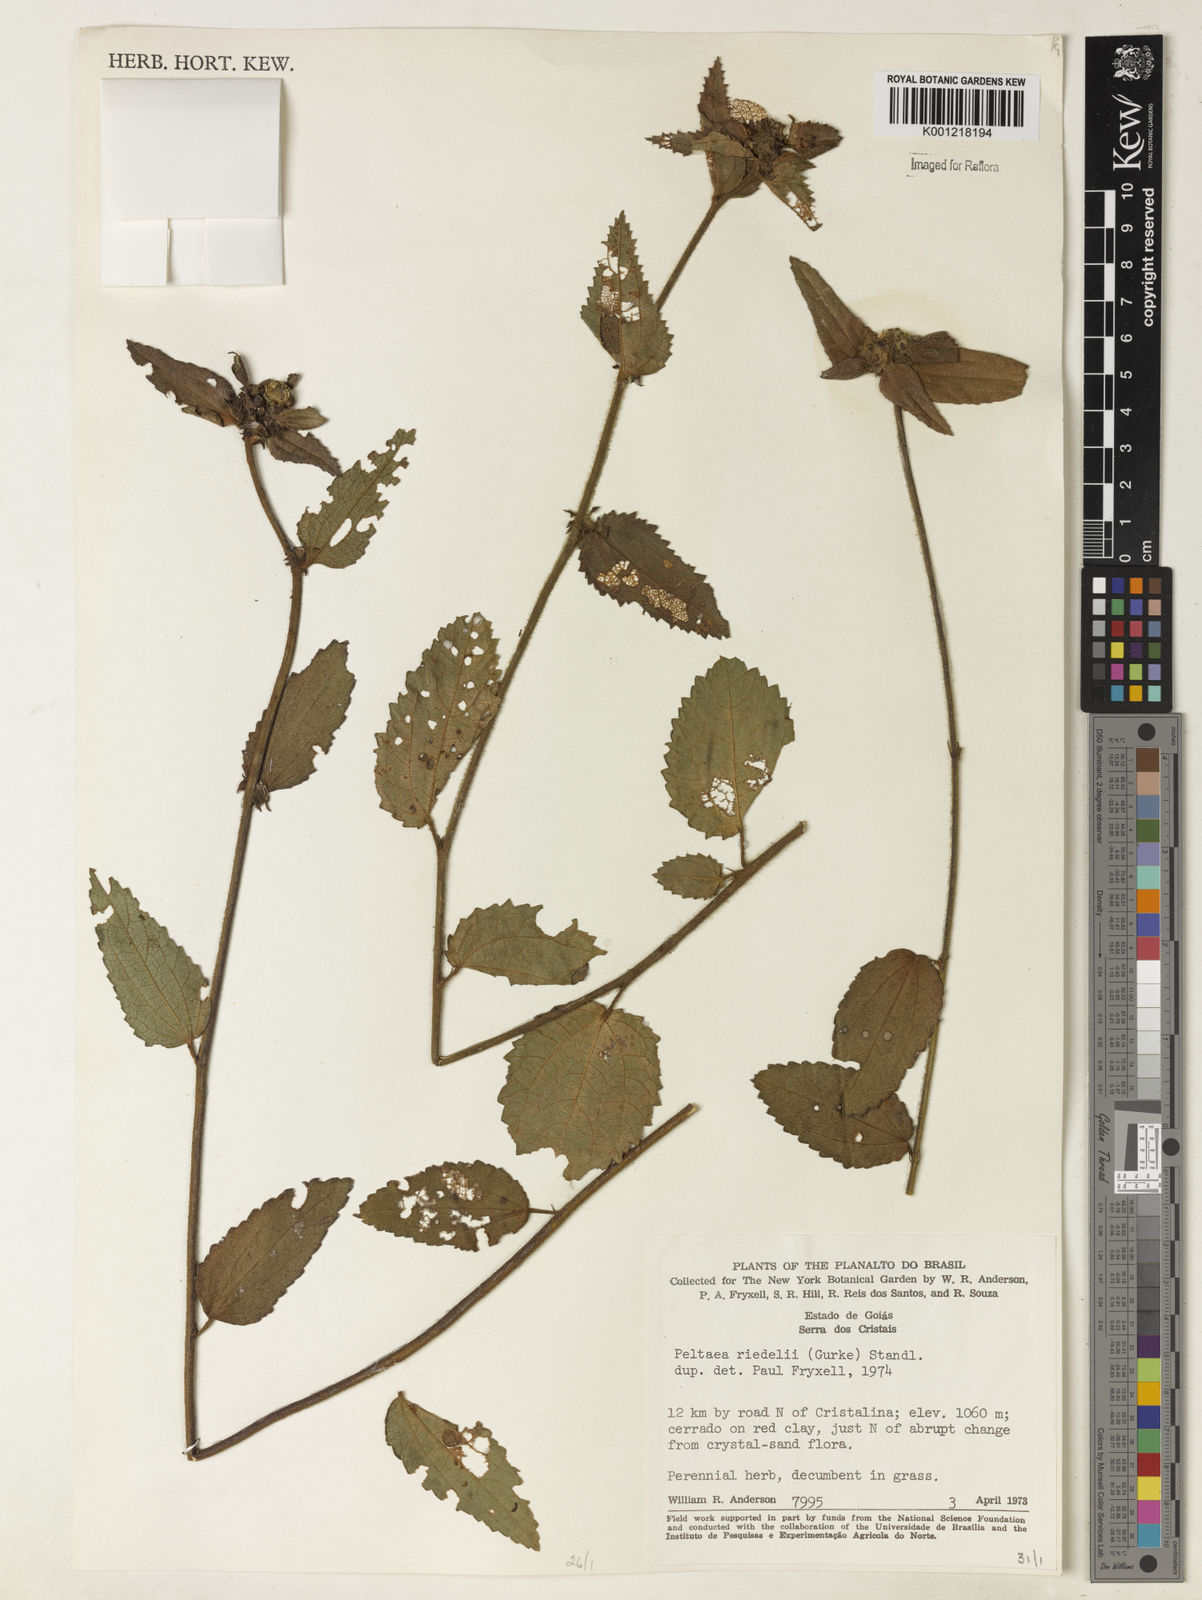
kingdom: Plantae
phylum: Tracheophyta
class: Magnoliopsida
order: Malvales
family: Malvaceae
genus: Peltaea
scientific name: Peltaea
